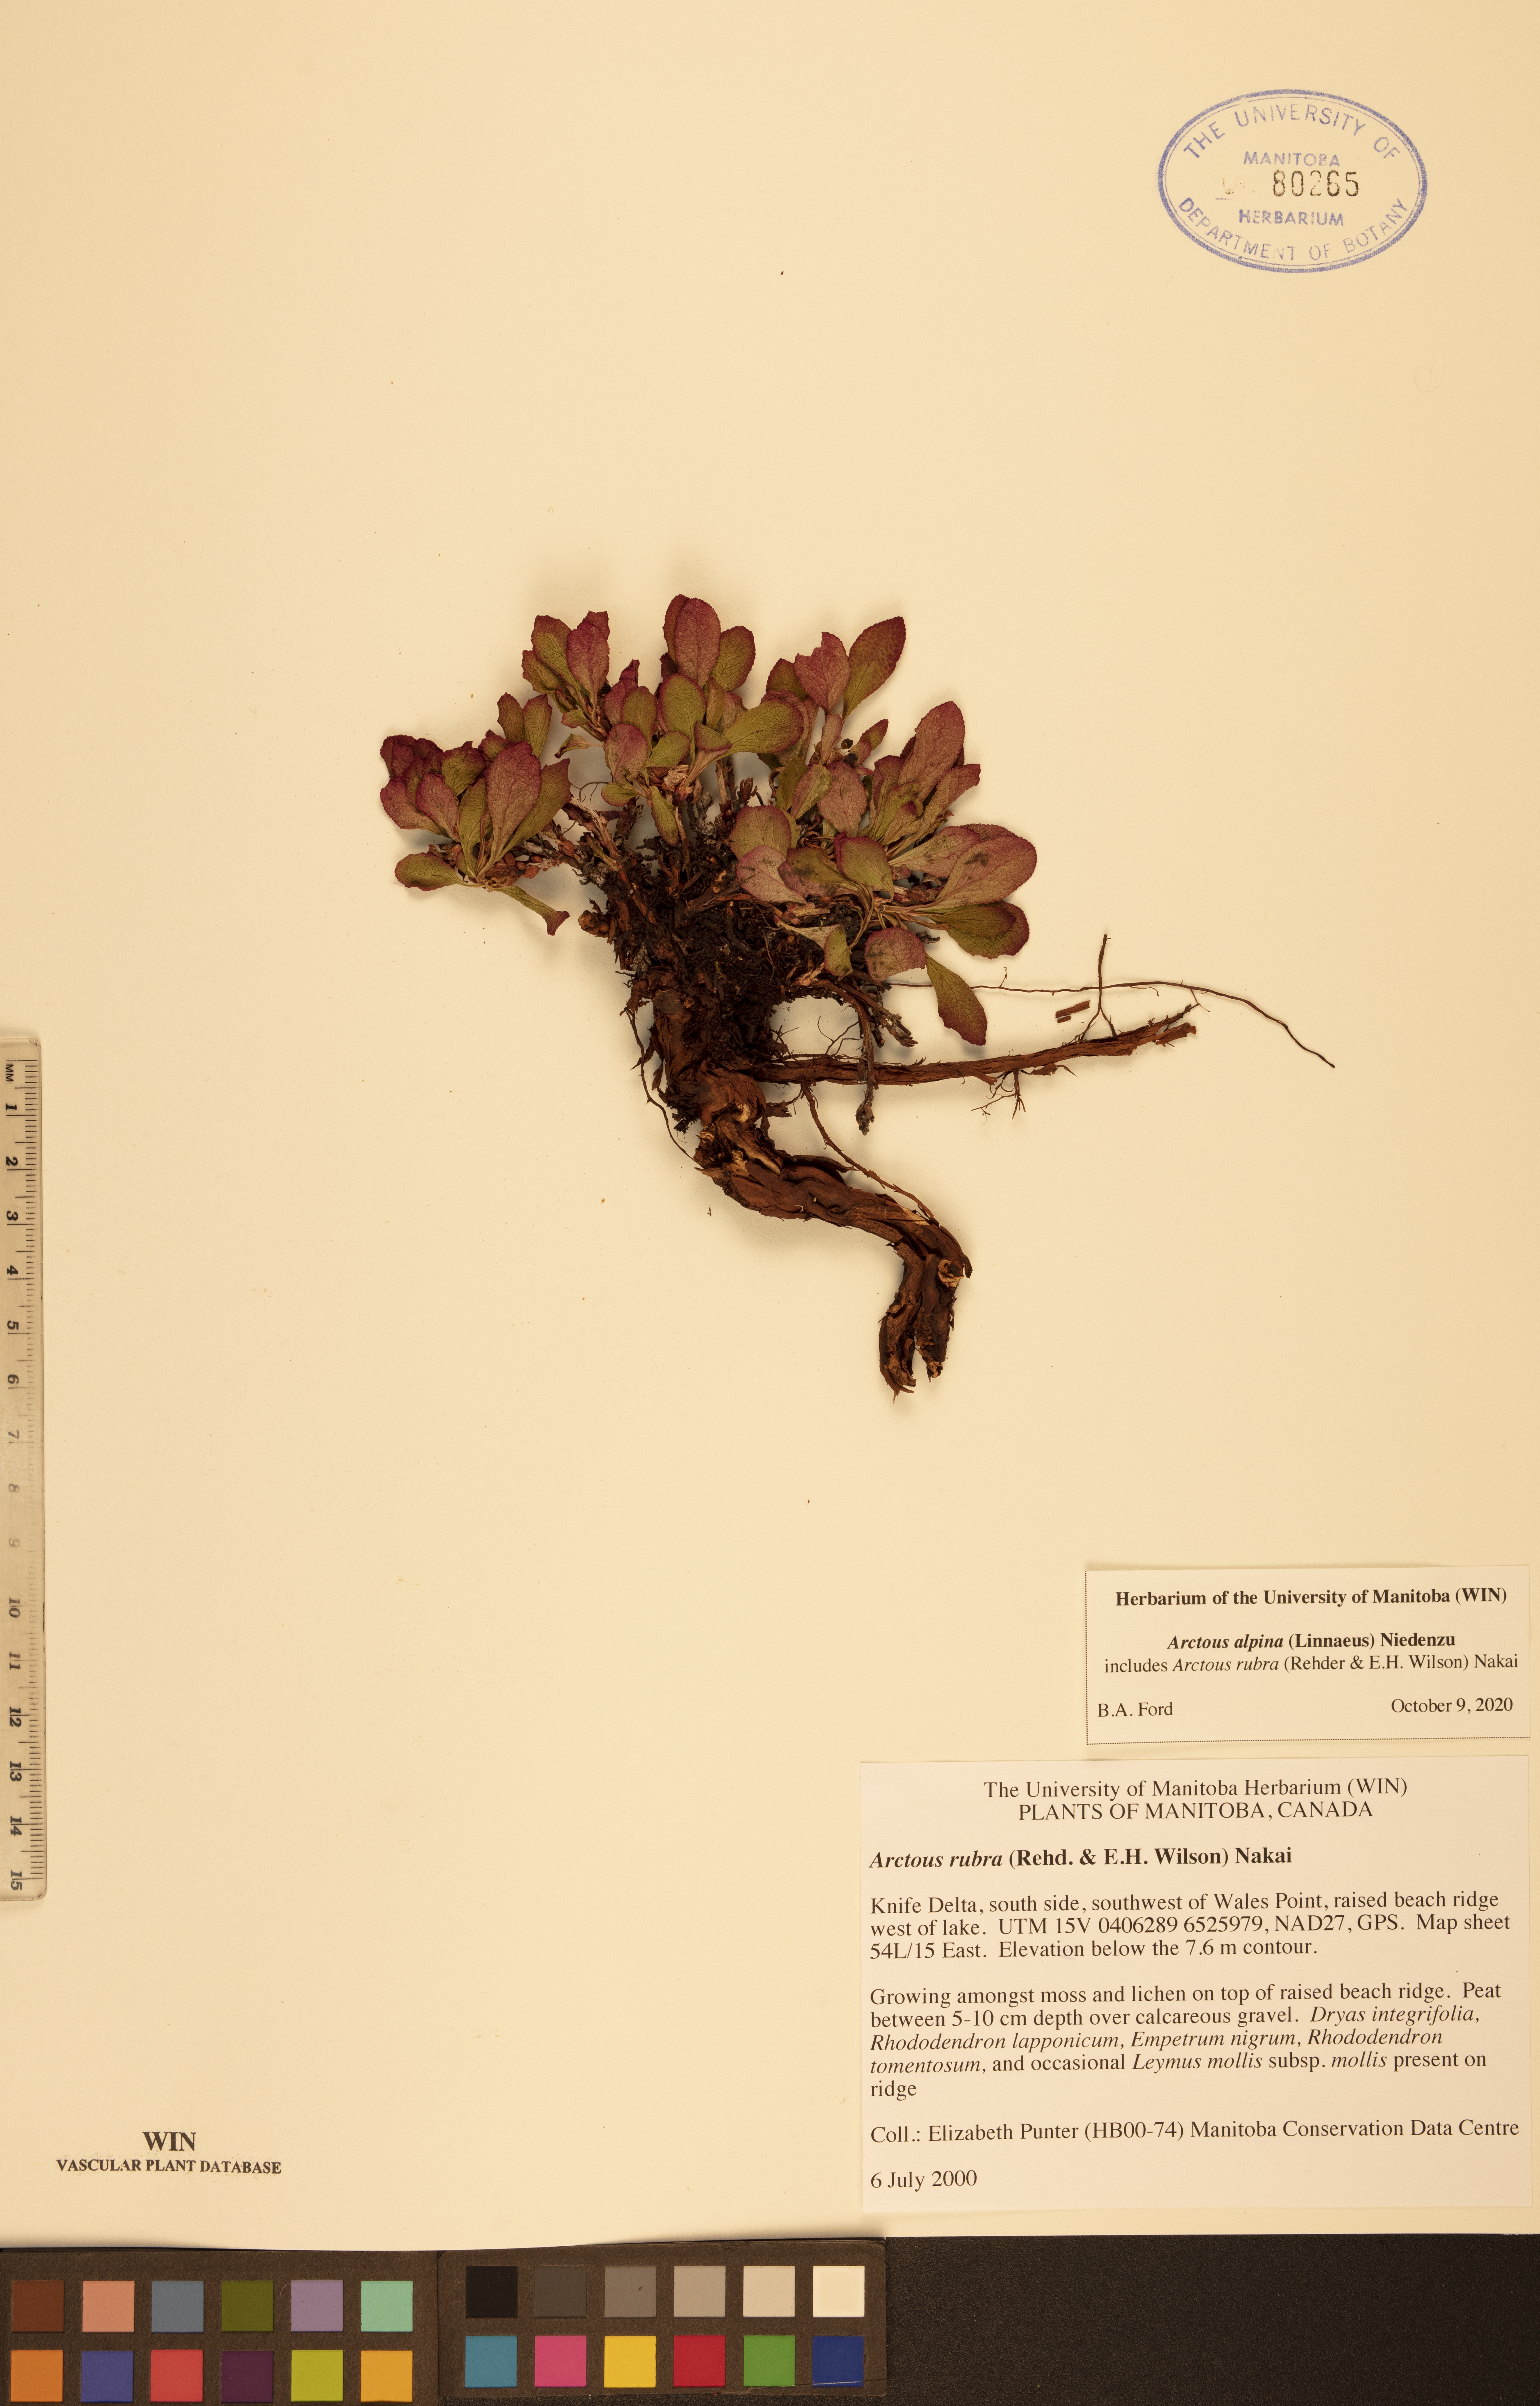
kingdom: Plantae
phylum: Tracheophyta
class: Magnoliopsida
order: Ericales
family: Ericaceae
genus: Arctostaphylos
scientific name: Arctostaphylos alpinus
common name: Alpine bearberry
